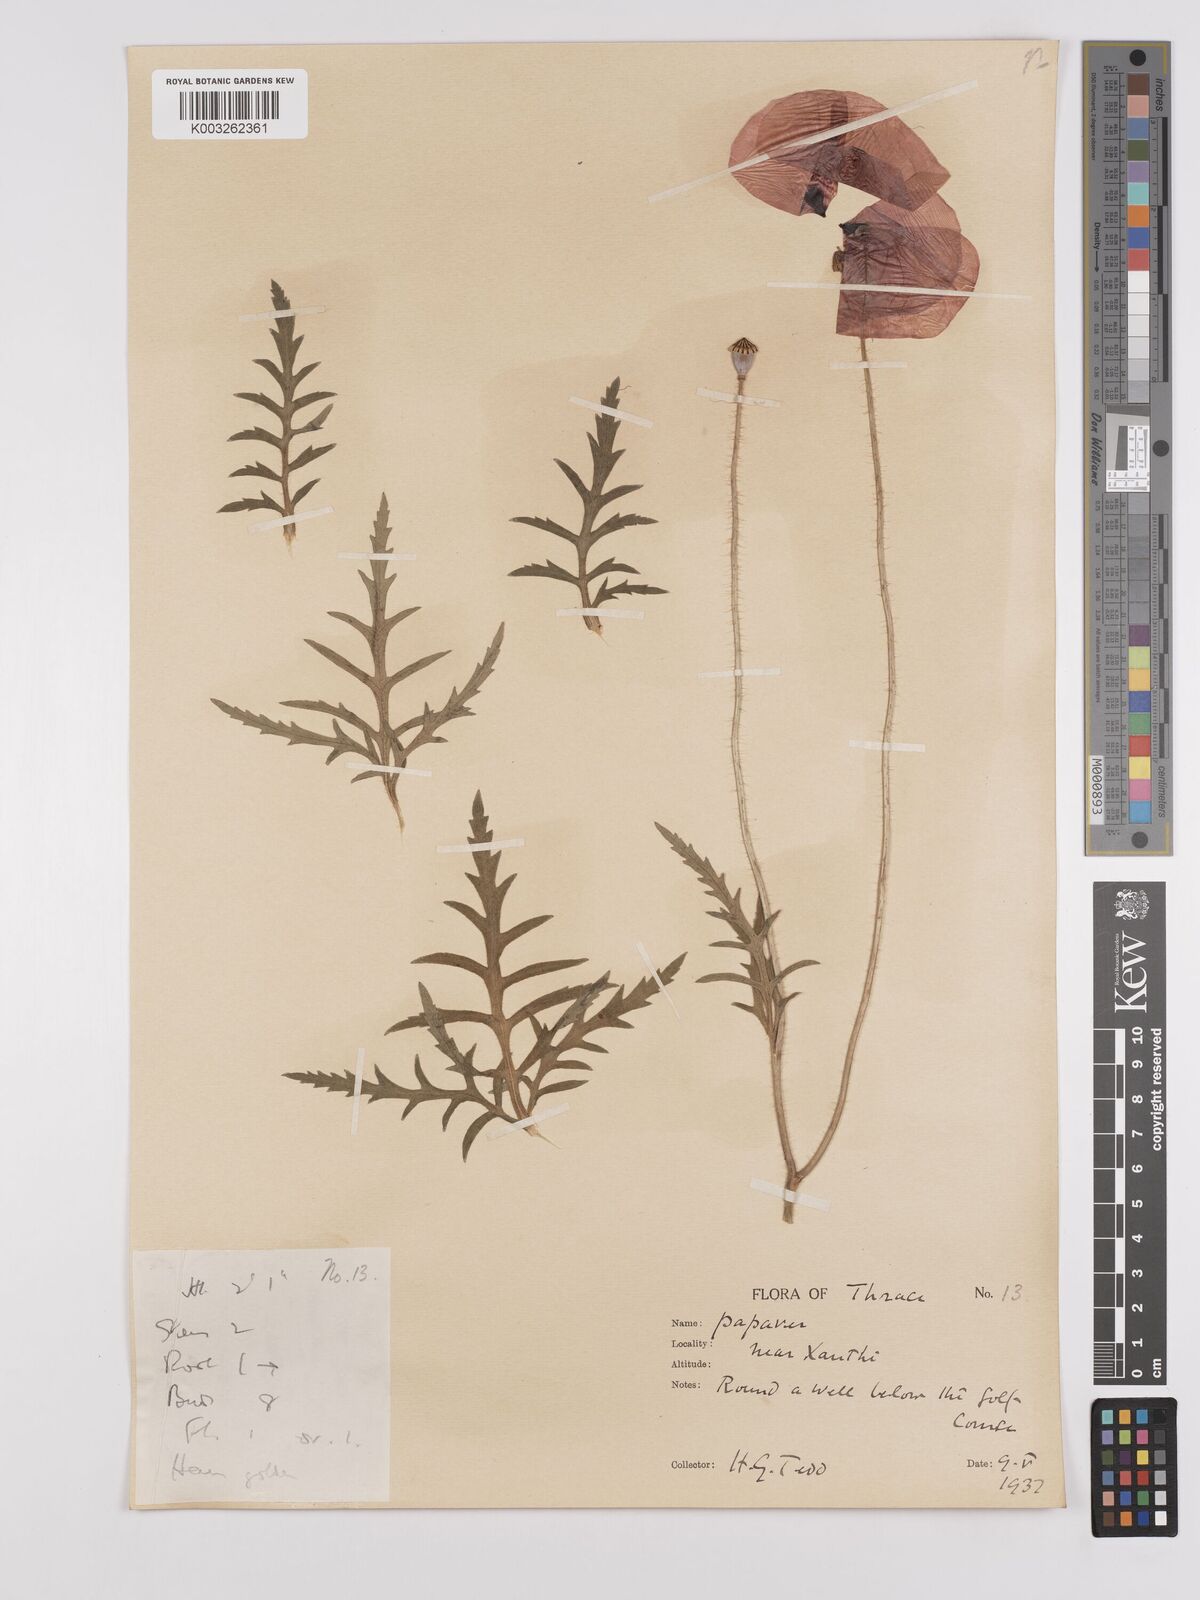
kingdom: Plantae
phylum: Tracheophyta
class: Magnoliopsida
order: Ranunculales
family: Papaveraceae
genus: Papaver
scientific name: Papaver rhoeas
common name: Corn poppy
